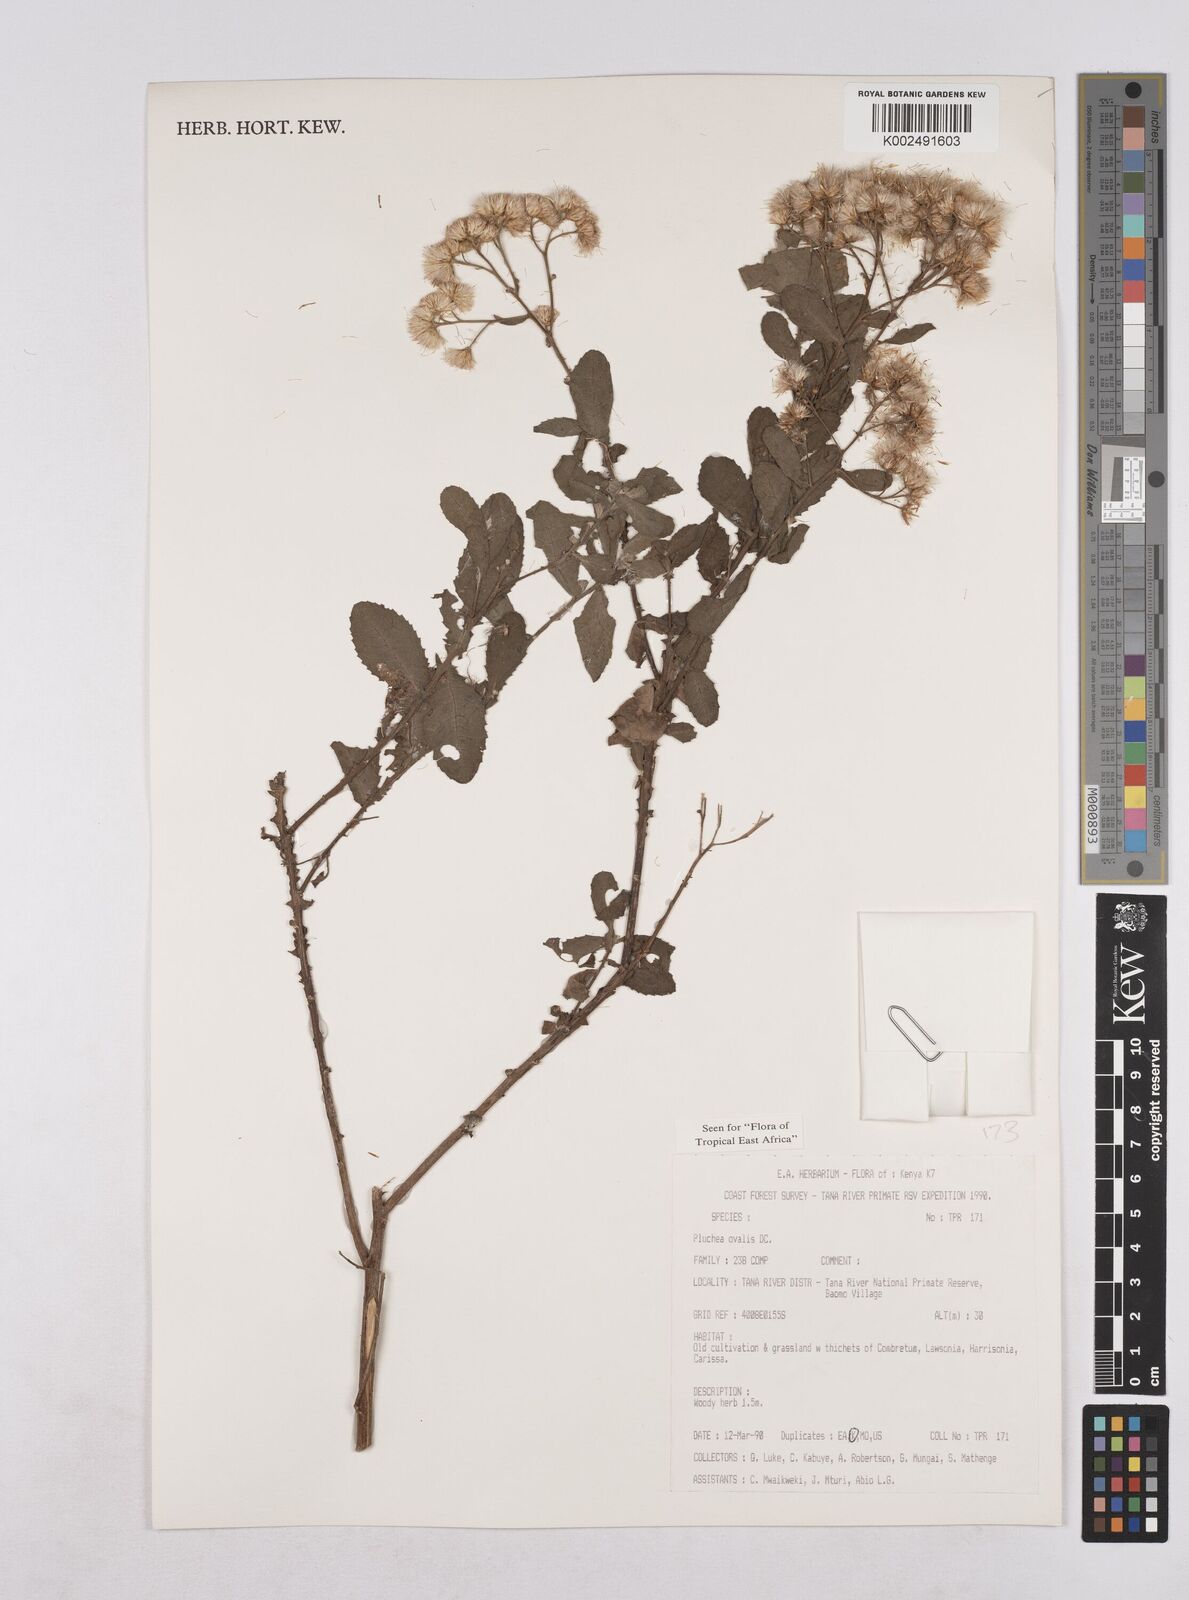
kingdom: Plantae
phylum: Tracheophyta
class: Magnoliopsida
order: Asterales
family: Asteraceae
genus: Pluchea
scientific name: Pluchea ovalis
